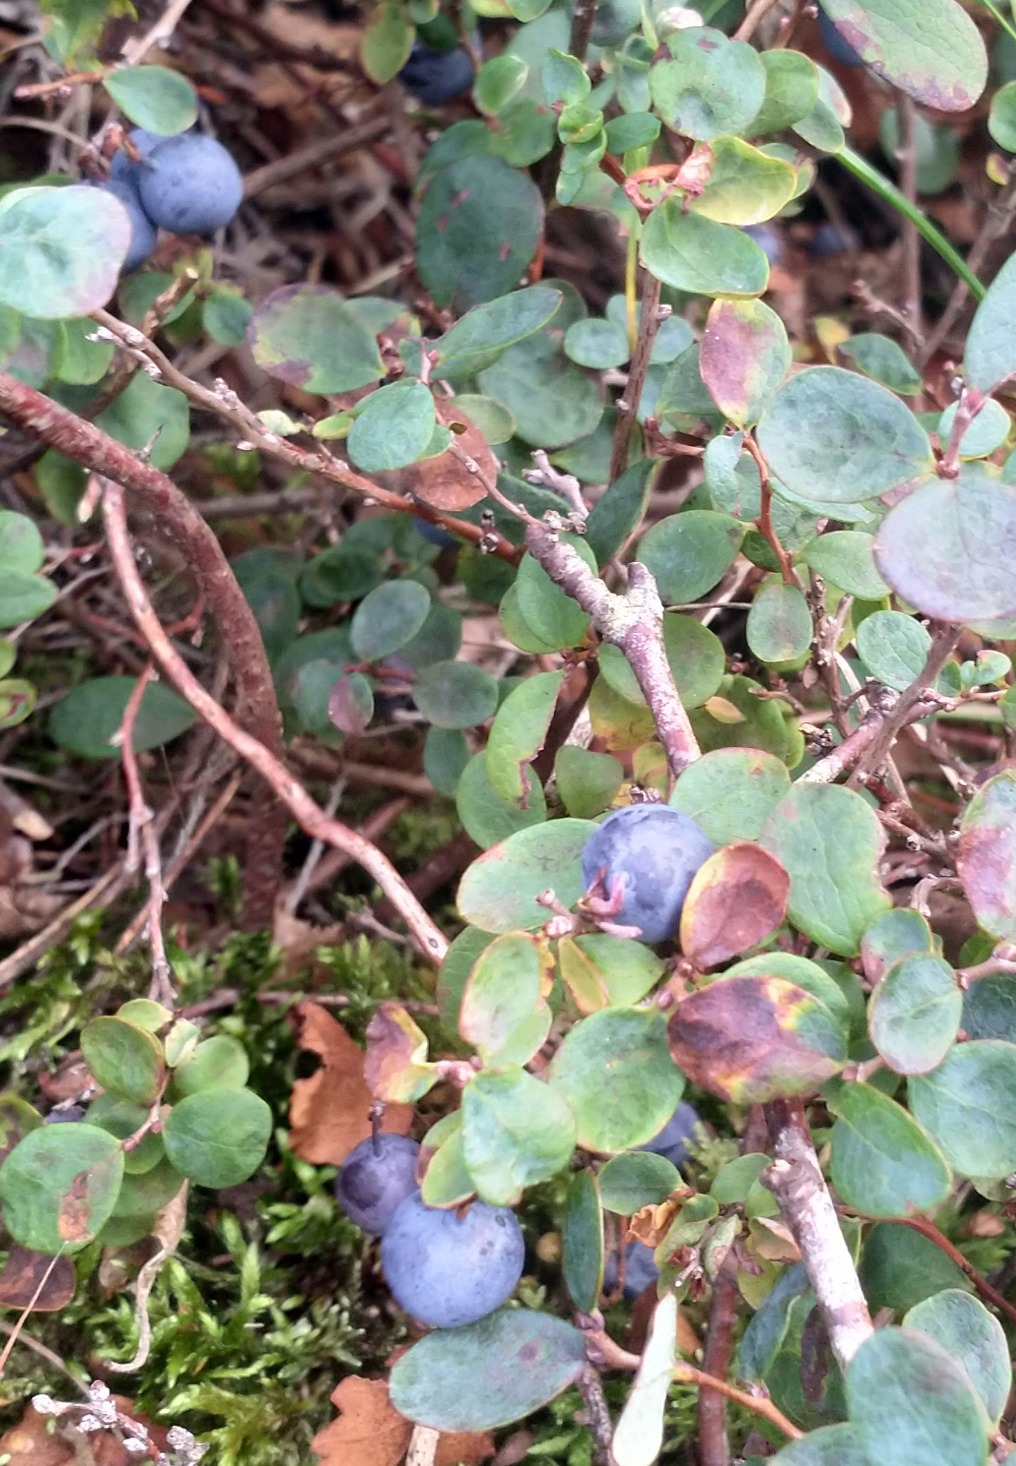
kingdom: Plantae
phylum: Tracheophyta
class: Magnoliopsida
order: Ericales
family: Ericaceae
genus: Vaccinium
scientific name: Vaccinium uliginosum
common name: Mose-bølle
